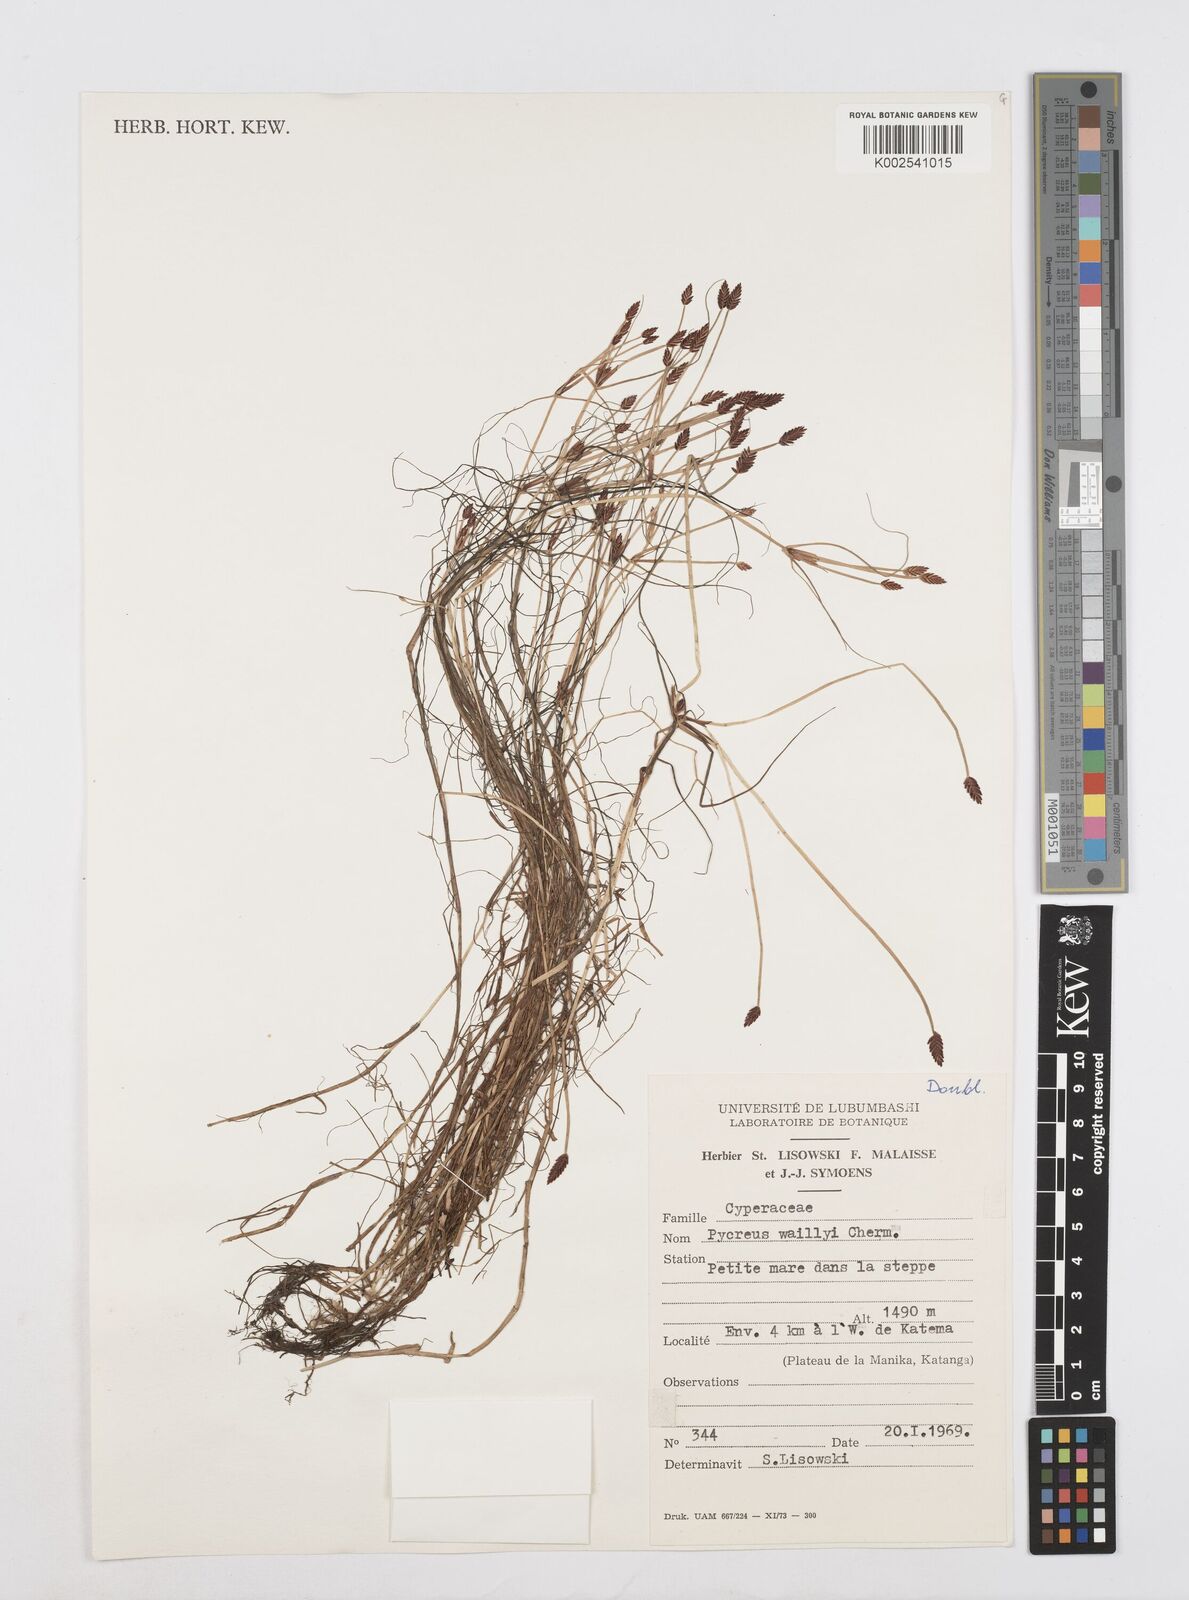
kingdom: Plantae
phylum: Tracheophyta
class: Liliopsida
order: Poales
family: Cyperaceae
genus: Cyperus
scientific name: Cyperus waillyi
